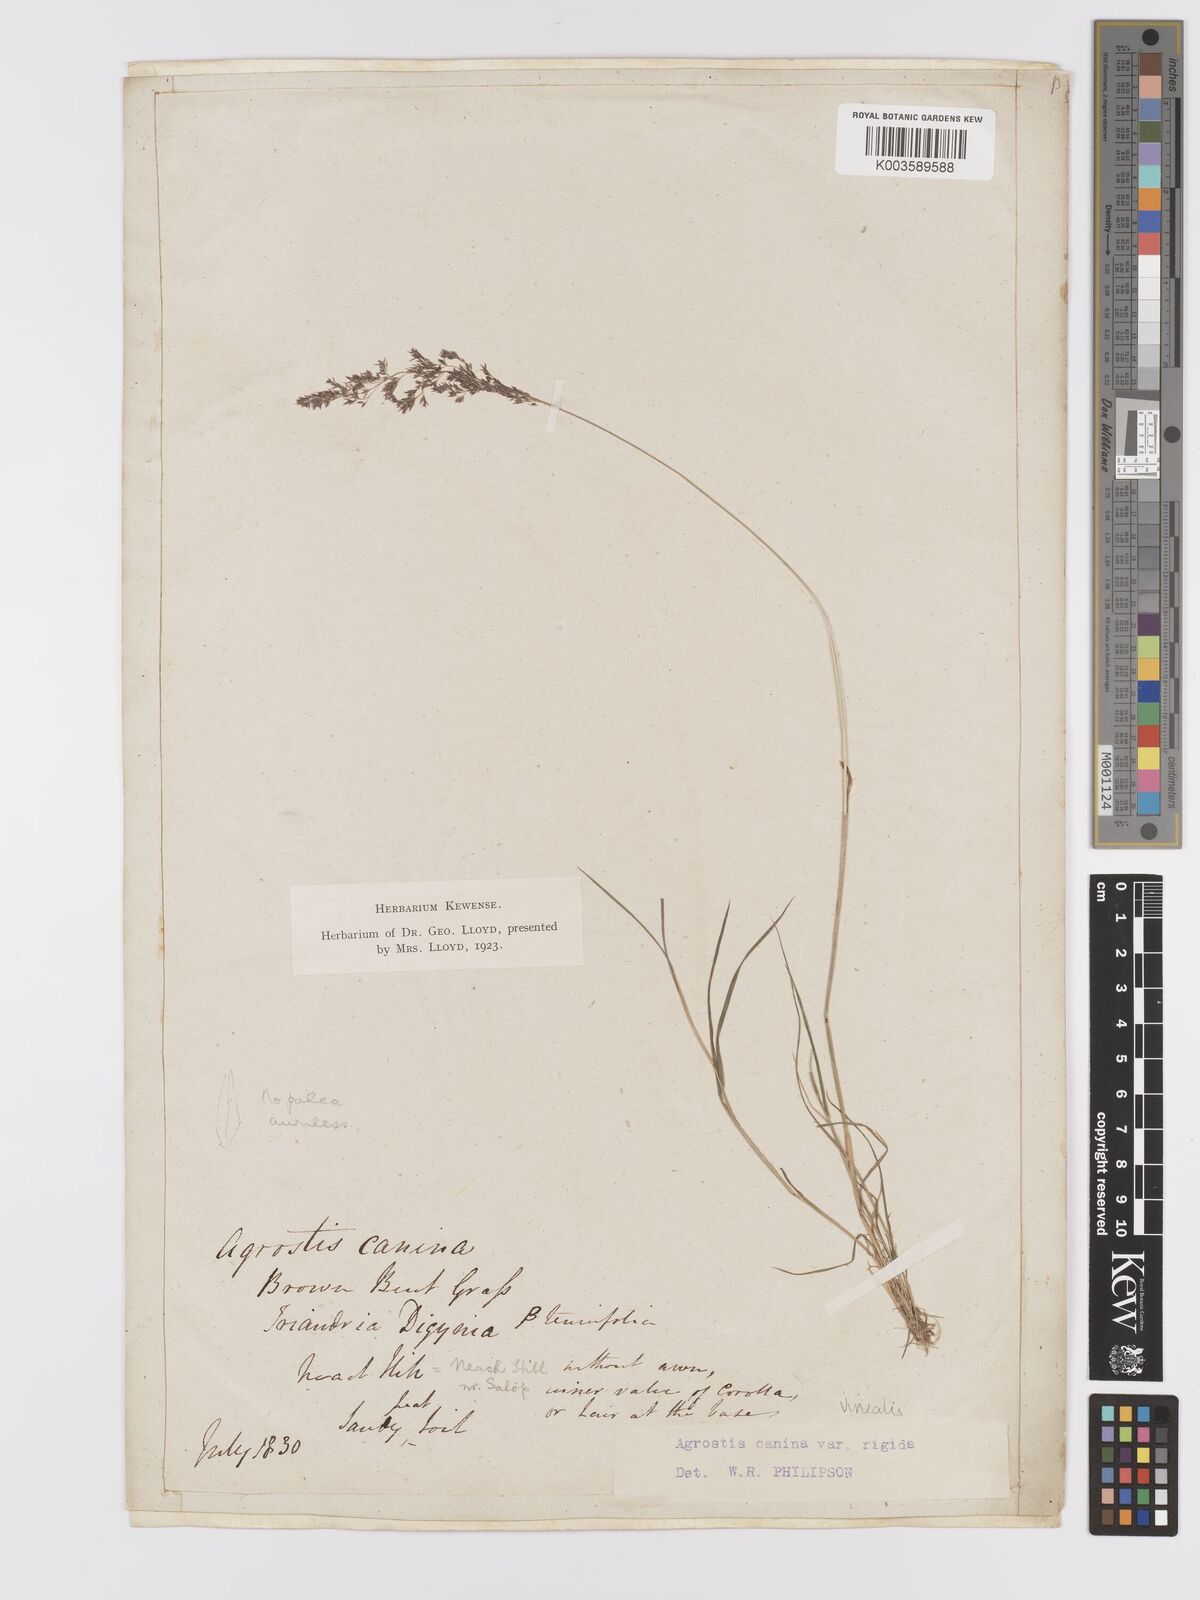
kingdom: Plantae
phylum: Tracheophyta
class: Liliopsida
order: Poales
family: Poaceae
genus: Agrostis
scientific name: Agrostis
